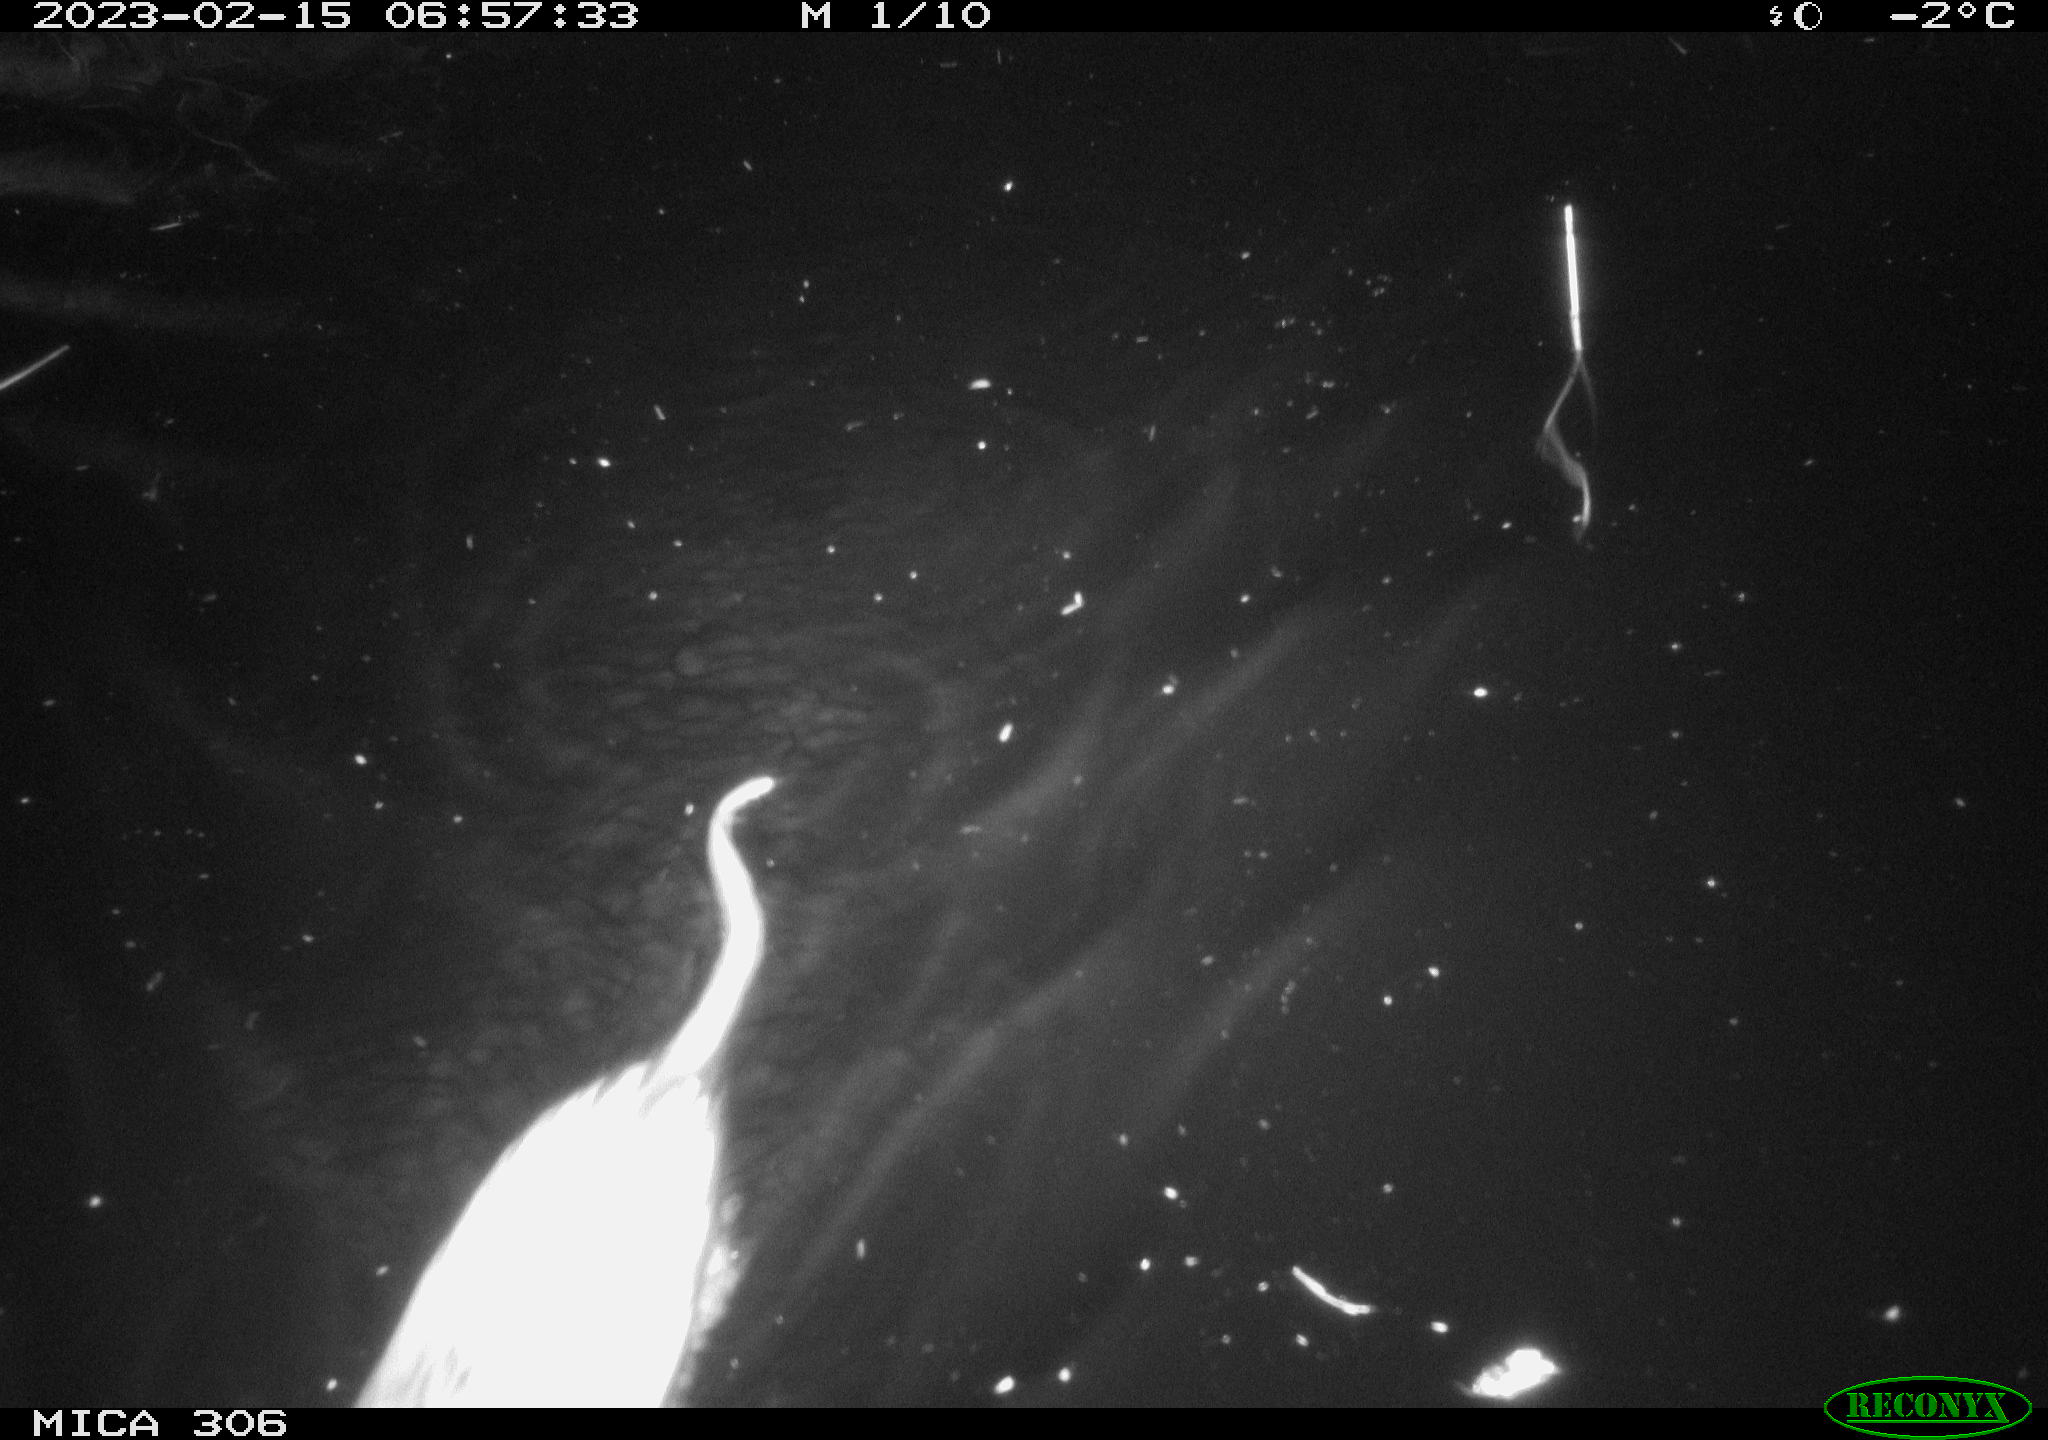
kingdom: Animalia
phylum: Chordata
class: Mammalia
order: Rodentia
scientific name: Rodentia
